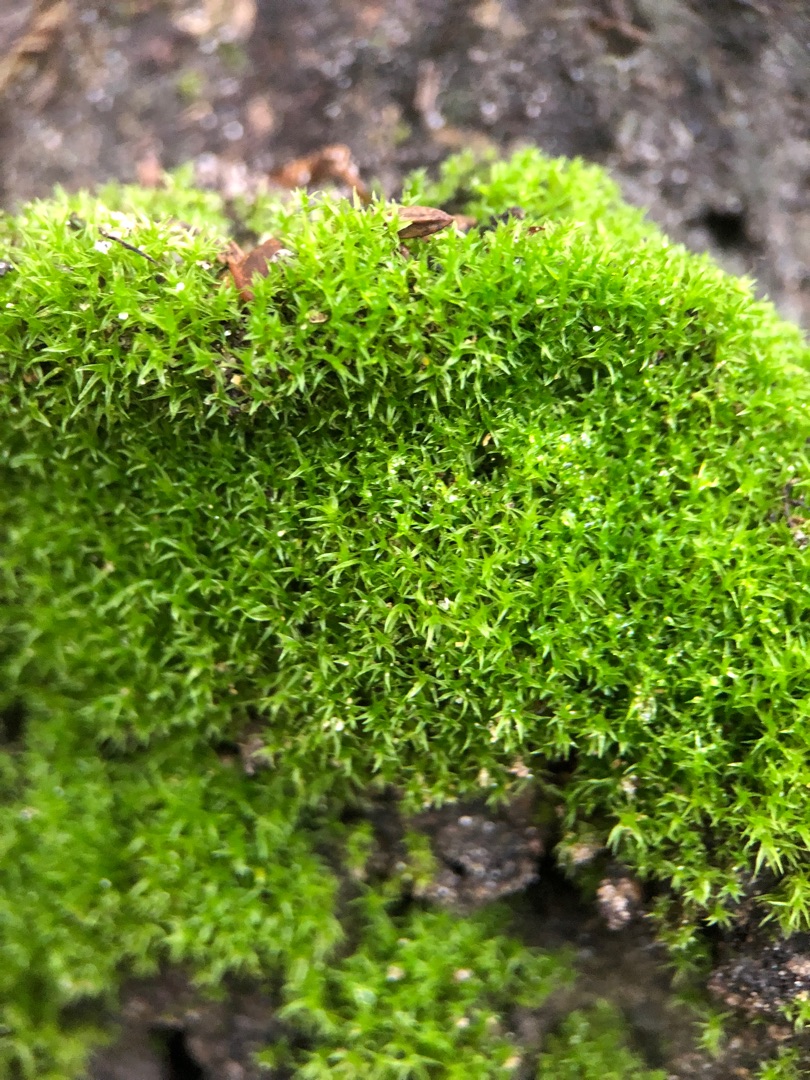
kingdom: Plantae
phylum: Bryophyta
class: Bryopsida
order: Dicranales
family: Ditrichaceae
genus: Ceratodon
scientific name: Ceratodon purpureus
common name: Rød horntand
